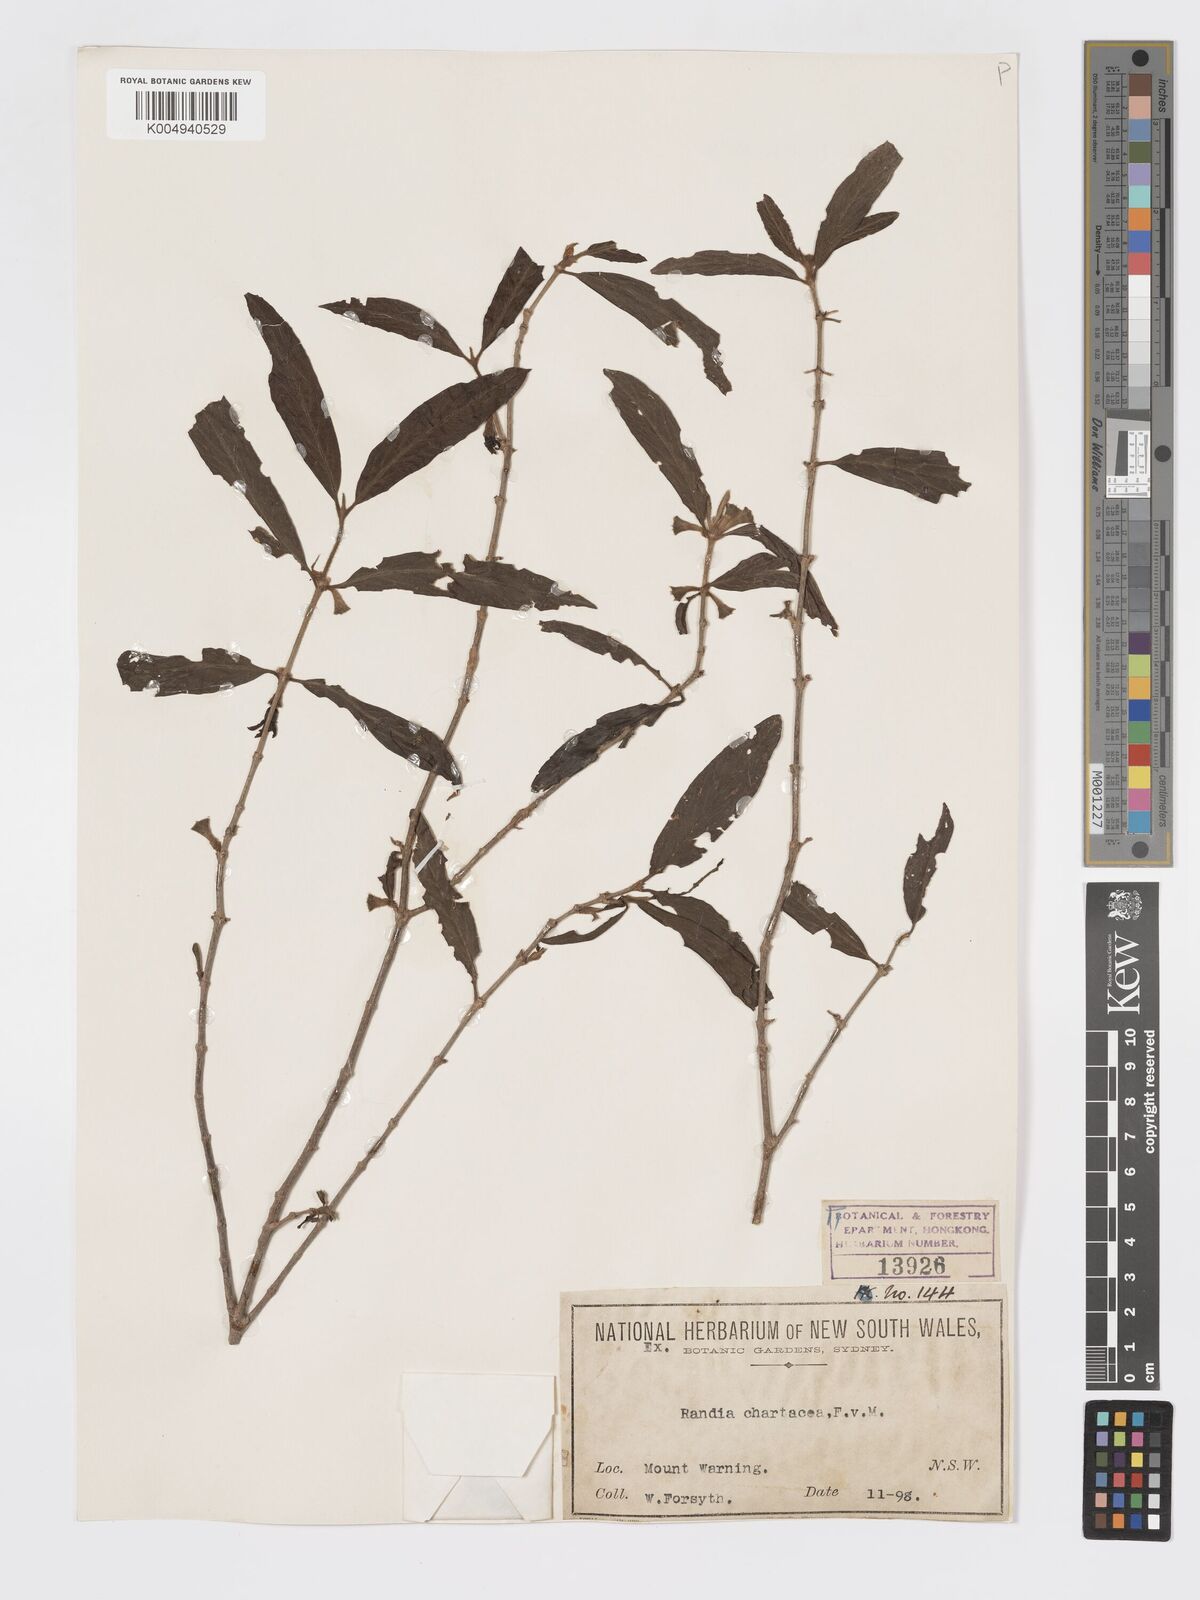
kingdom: Plantae
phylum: Tracheophyta
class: Magnoliopsida
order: Gentianales
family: Rubiaceae
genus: Atractocarpus
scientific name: Atractocarpus chartaceus
